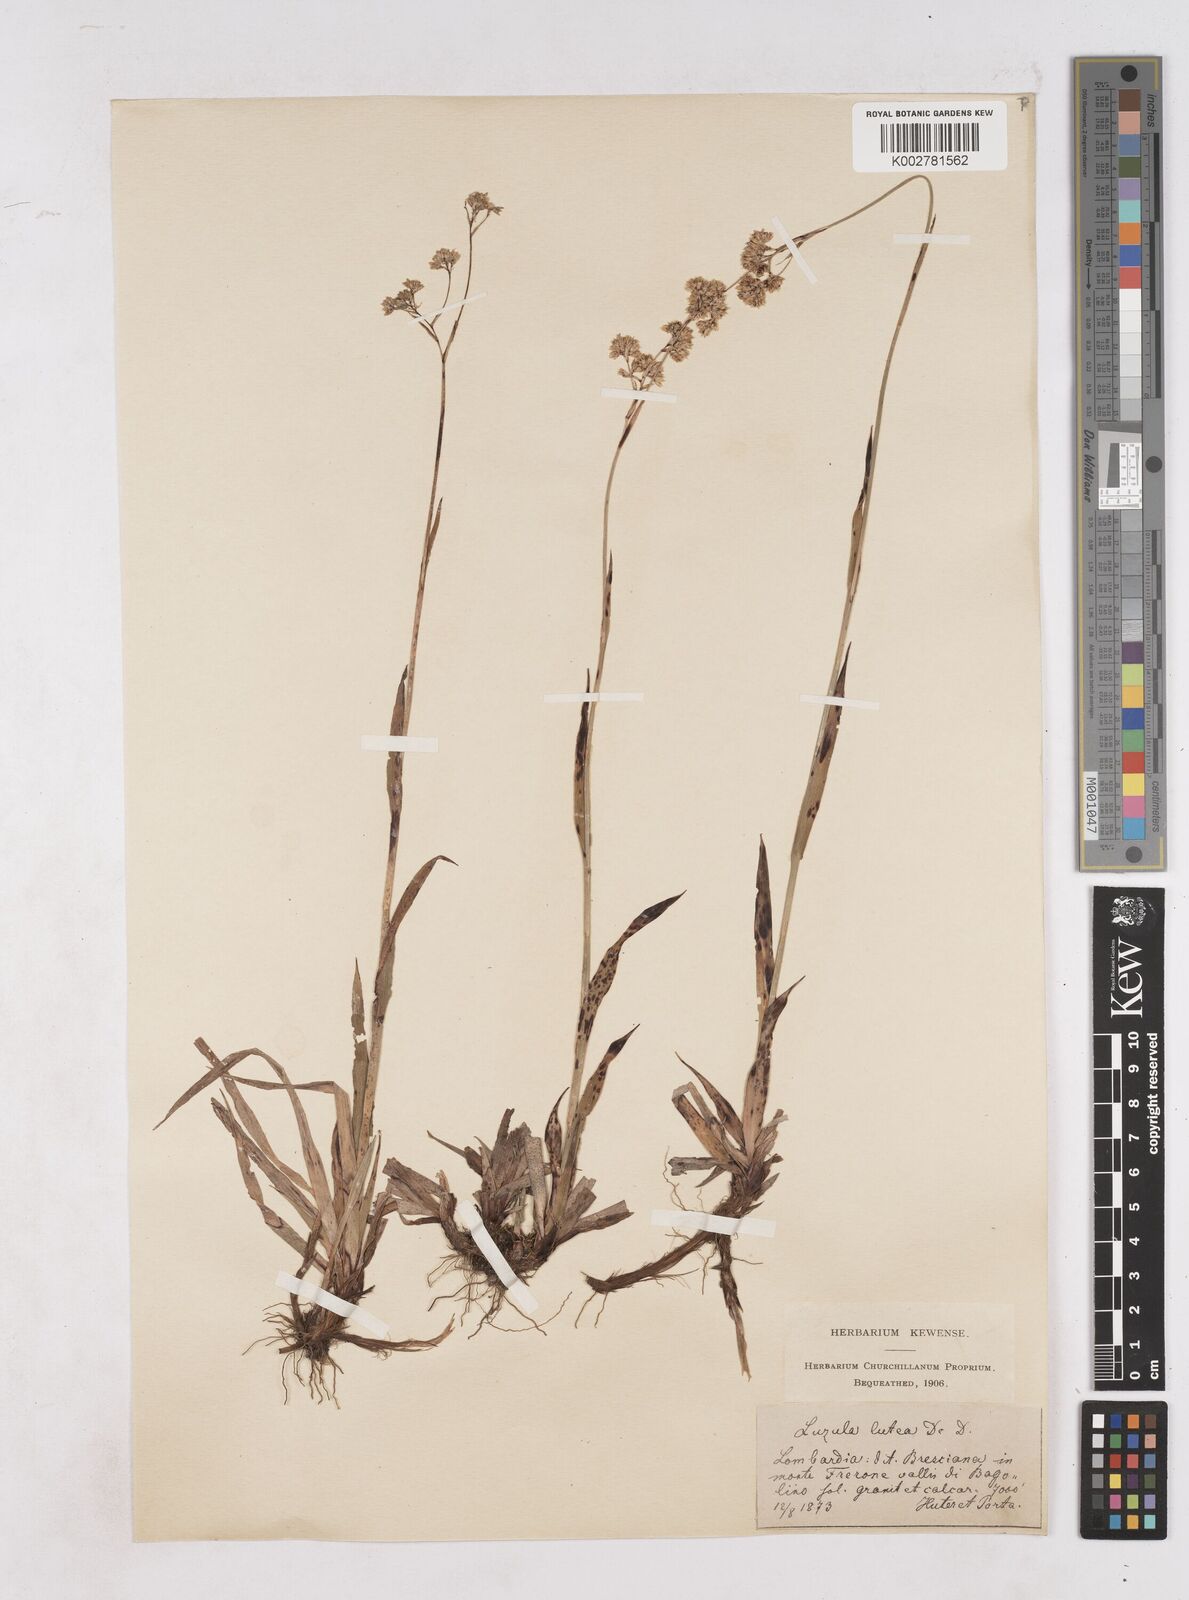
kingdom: Plantae
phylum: Tracheophyta
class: Liliopsida
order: Poales
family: Juncaceae
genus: Luzula
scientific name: Luzula lutea
